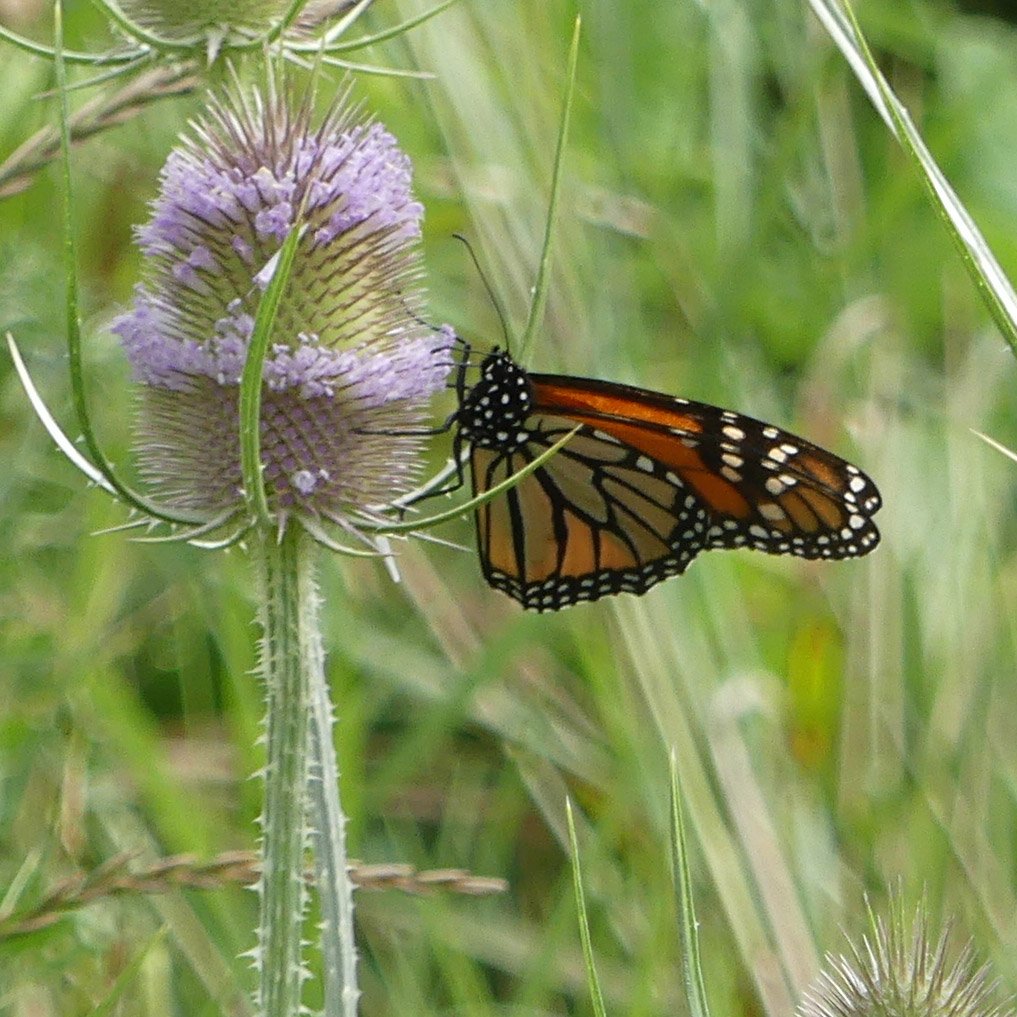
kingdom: Animalia
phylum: Arthropoda
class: Insecta
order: Lepidoptera
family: Nymphalidae
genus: Danaus
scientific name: Danaus plexippus
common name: Monarch
